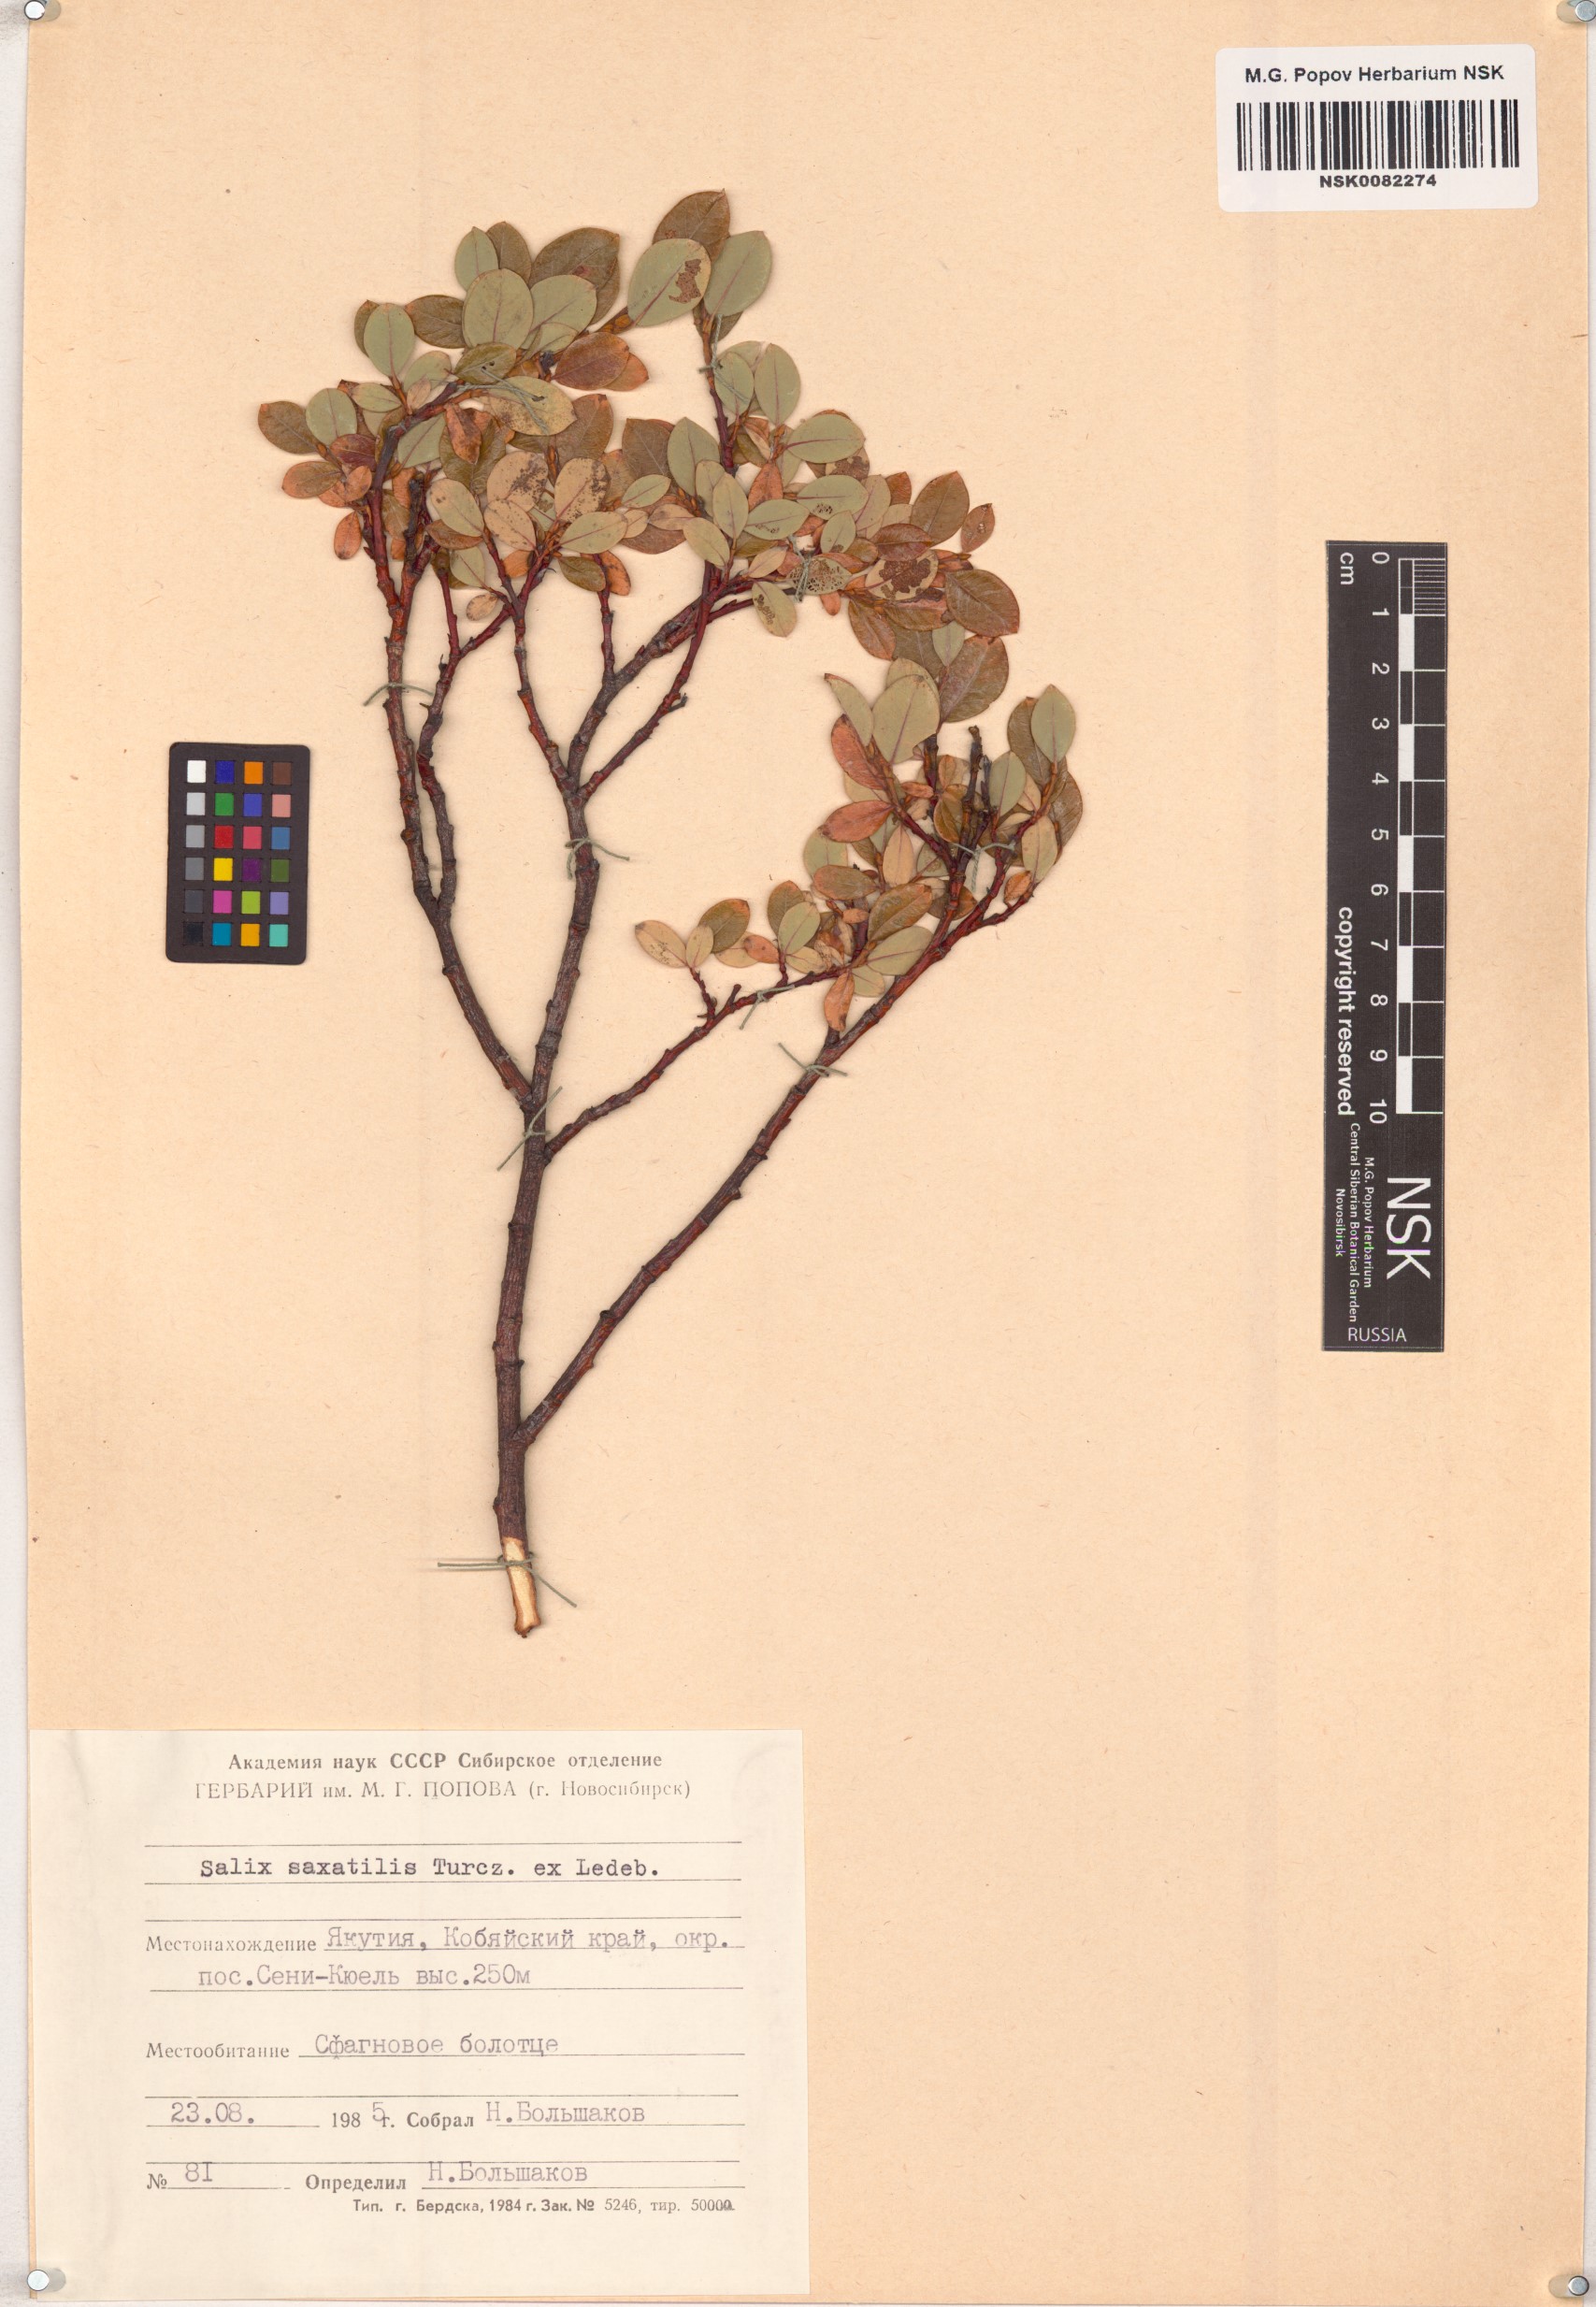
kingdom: Plantae
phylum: Tracheophyta
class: Magnoliopsida
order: Malpighiales
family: Salicaceae
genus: Salix
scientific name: Salix saxatilis
